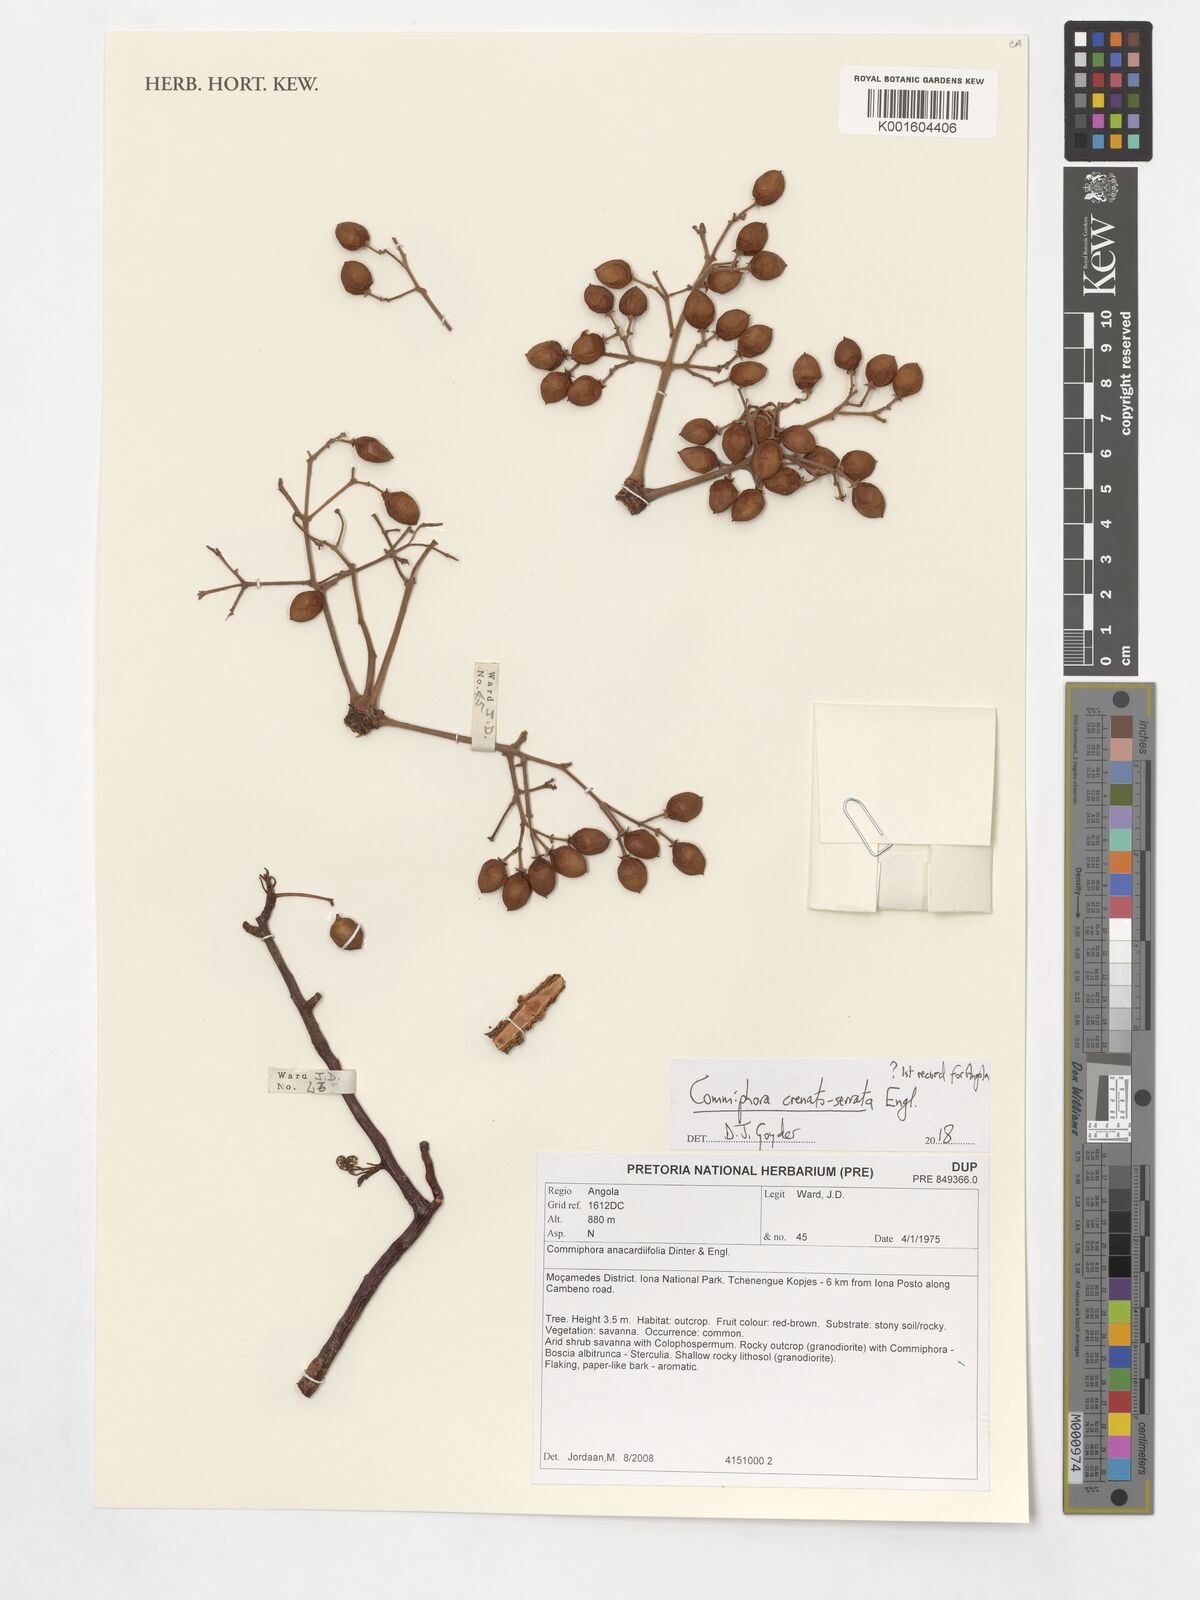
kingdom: Plantae
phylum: Tracheophyta
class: Magnoliopsida
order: Sapindales
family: Burseraceae
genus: Commiphora
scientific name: Commiphora anacardiifolia
